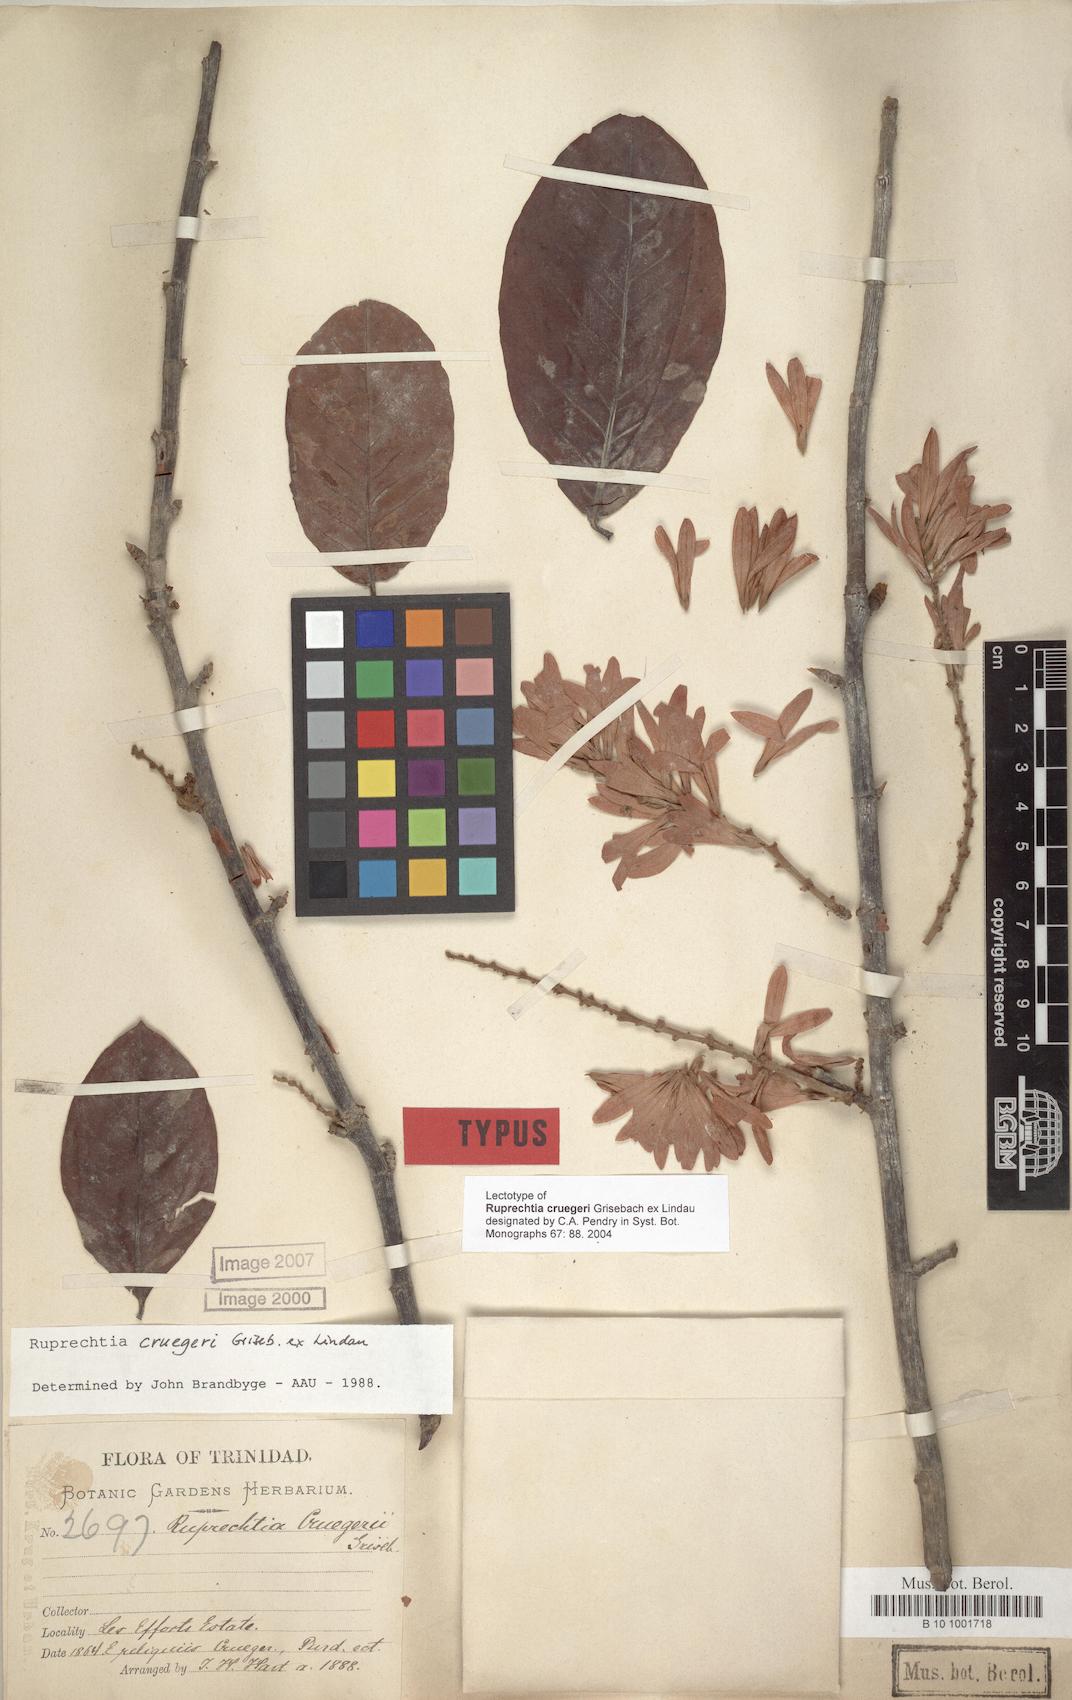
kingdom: Plantae
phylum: Tracheophyta
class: Magnoliopsida
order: Caryophyllales
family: Polygonaceae
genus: Ruprechtia
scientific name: Ruprechtia cruegeri
